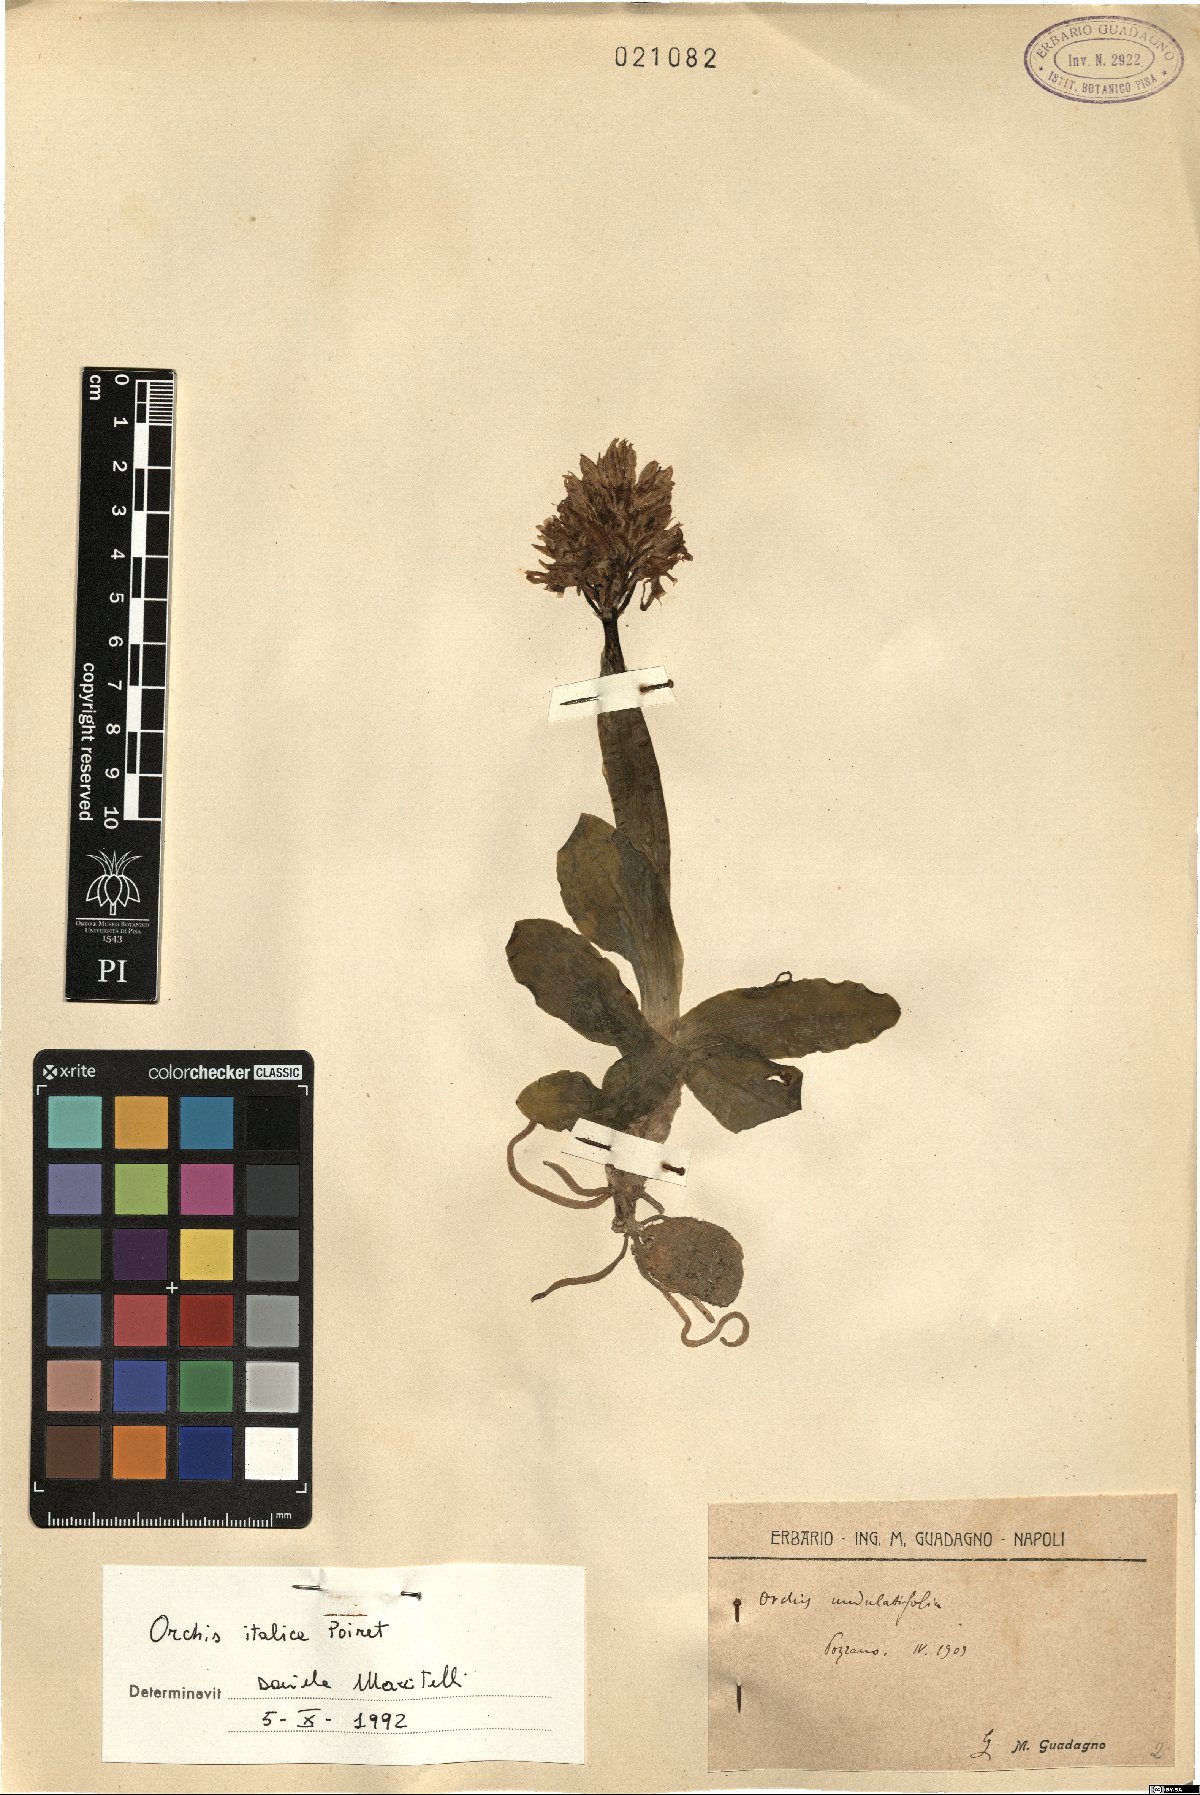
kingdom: Plantae
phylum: Tracheophyta
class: Liliopsida
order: Asparagales
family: Orchidaceae
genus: Orchis
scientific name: Orchis italica
